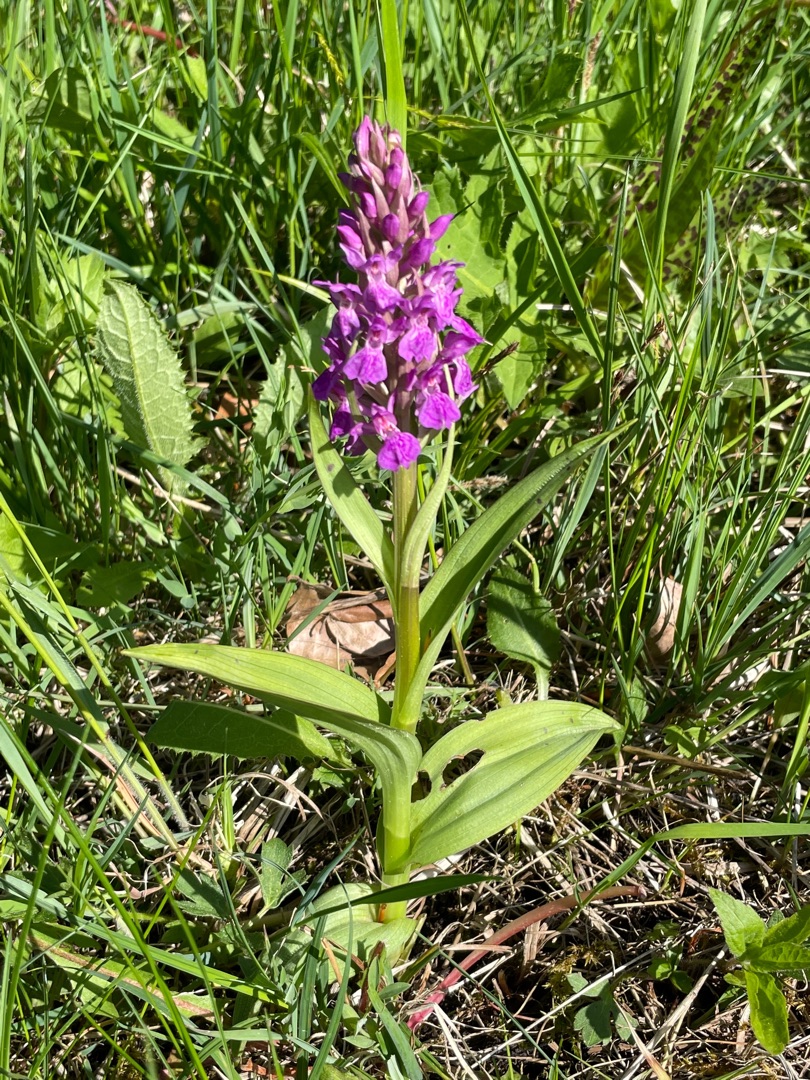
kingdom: Plantae
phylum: Tracheophyta
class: Liliopsida
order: Asparagales
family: Orchidaceae
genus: Dactylorhiza
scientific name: Dactylorhiza majalis
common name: Maj-gøgeurt
